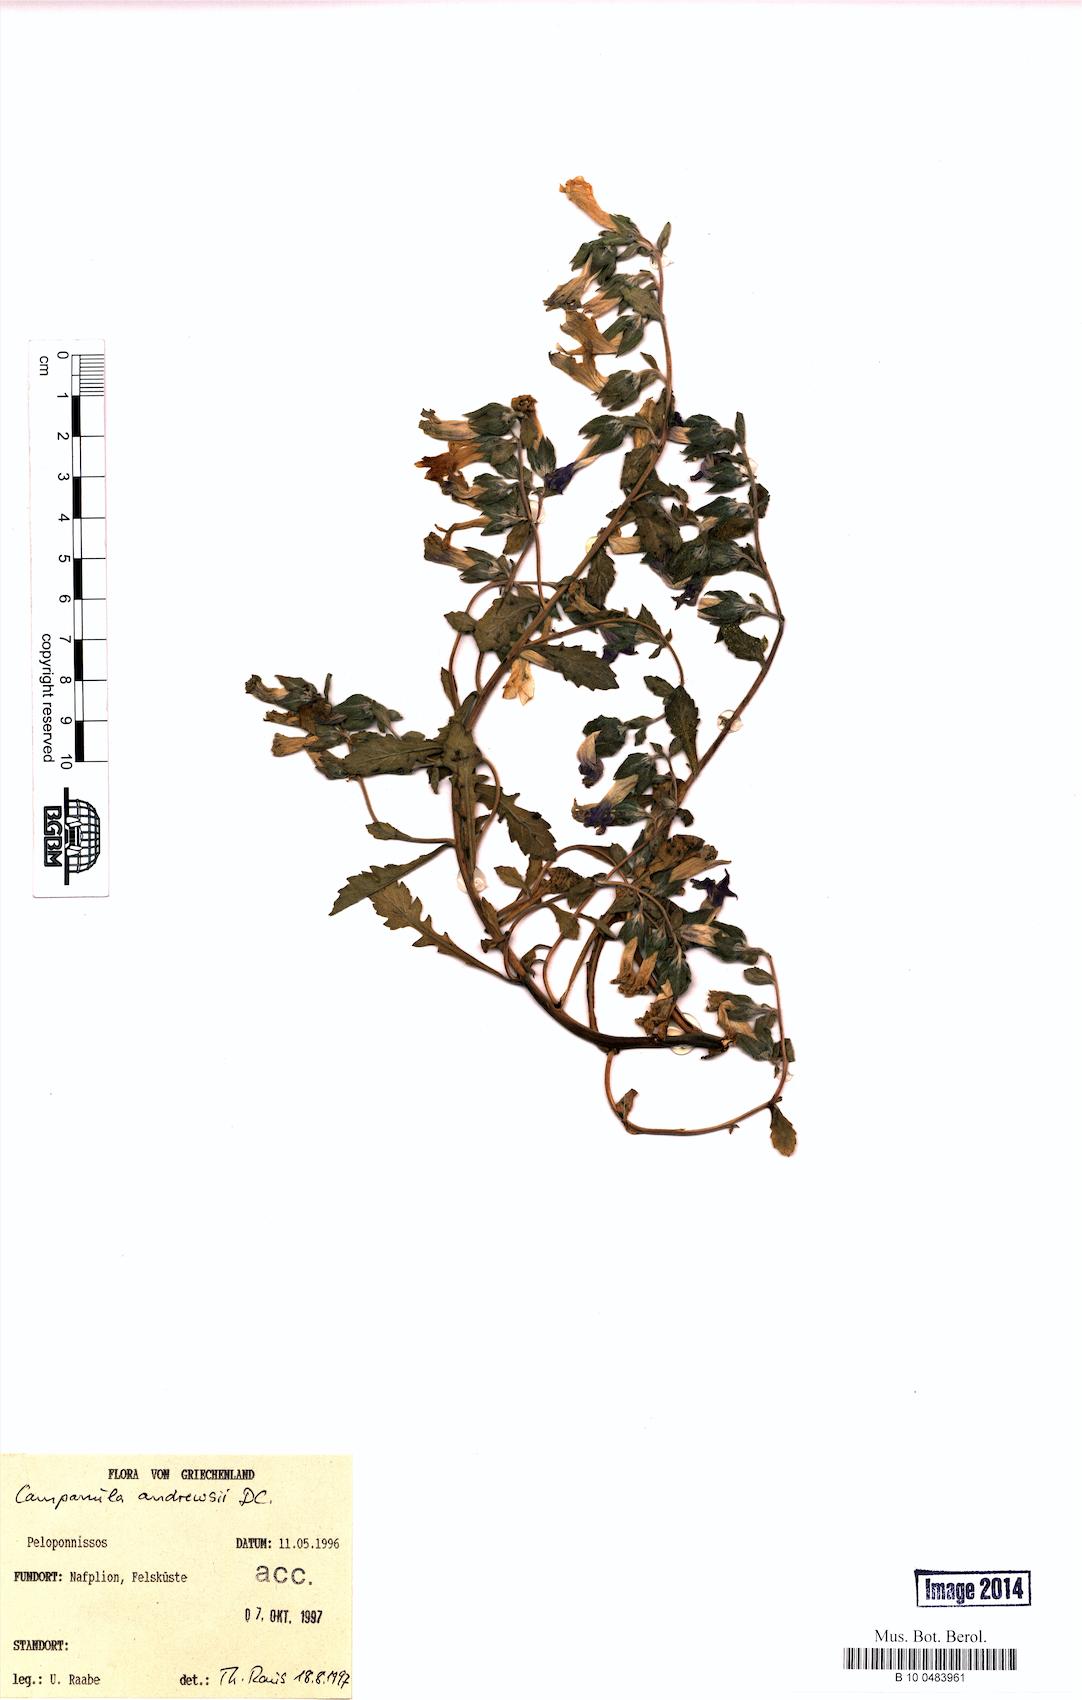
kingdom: Plantae
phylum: Tracheophyta
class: Magnoliopsida
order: Asterales
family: Campanulaceae
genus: Campanula
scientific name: Campanula andrewsii
